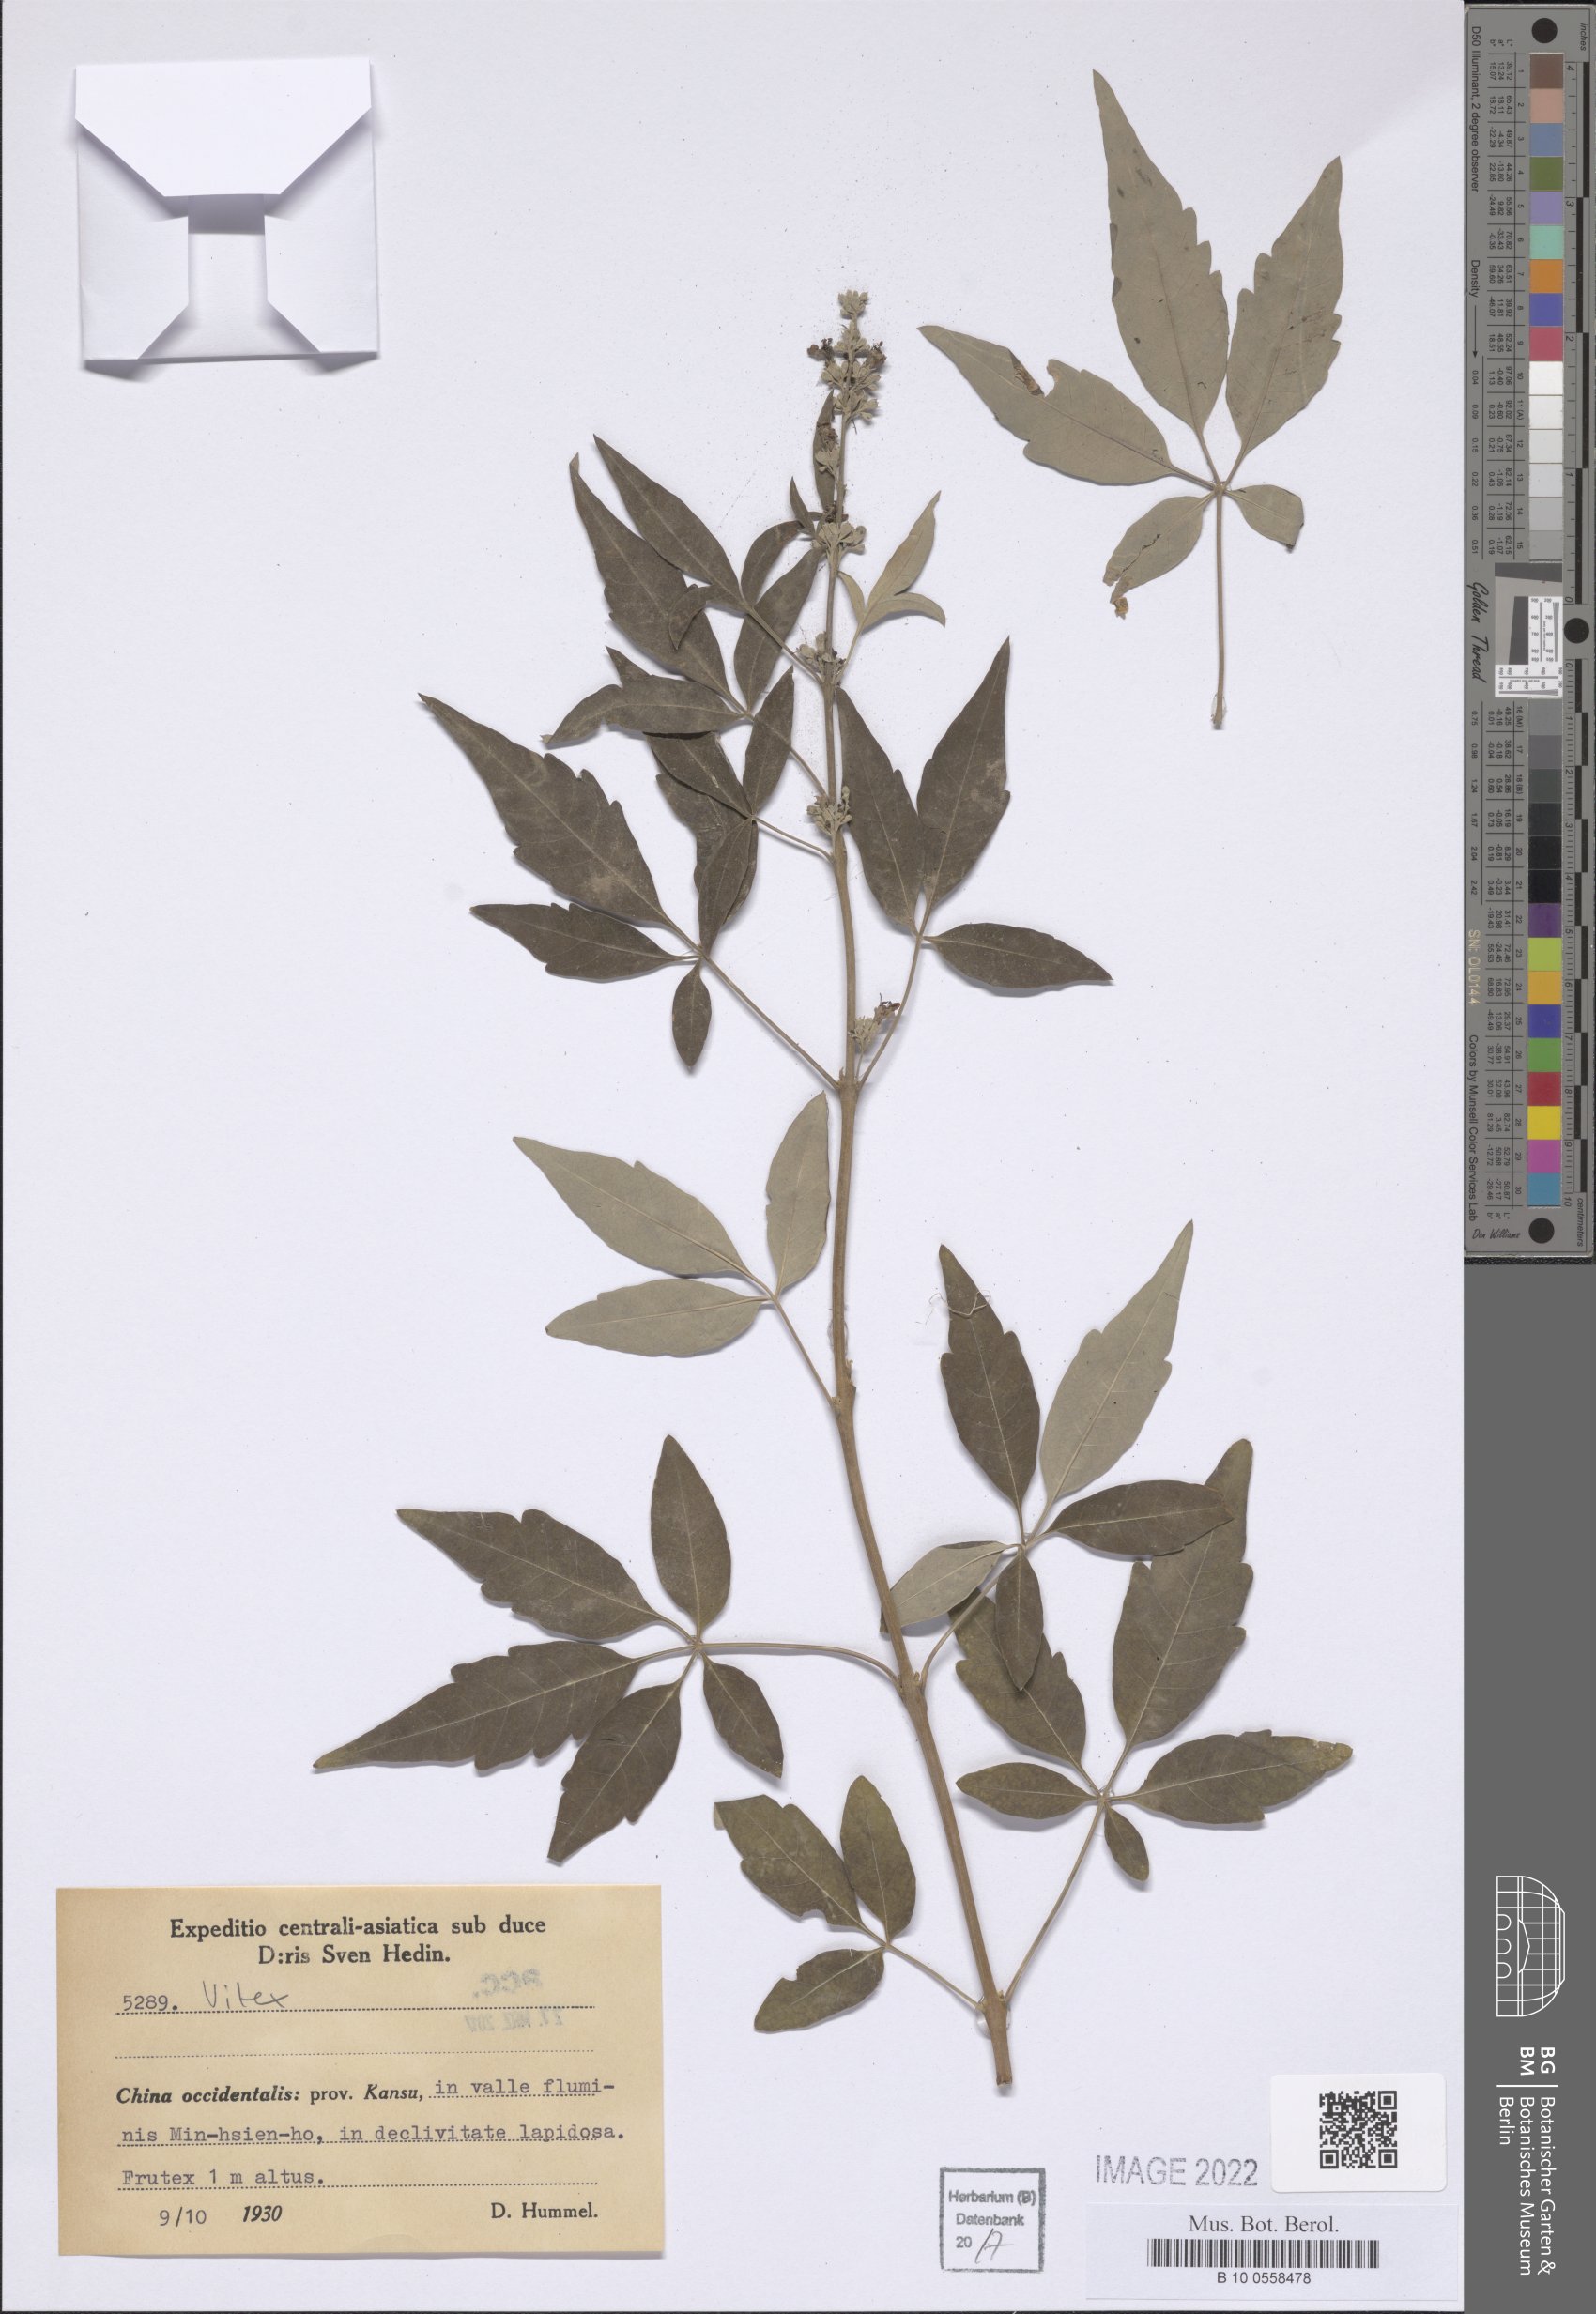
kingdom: Plantae
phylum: Tracheophyta
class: Magnoliopsida
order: Lamiales
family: Lamiaceae
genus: Vitex
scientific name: Vitex
